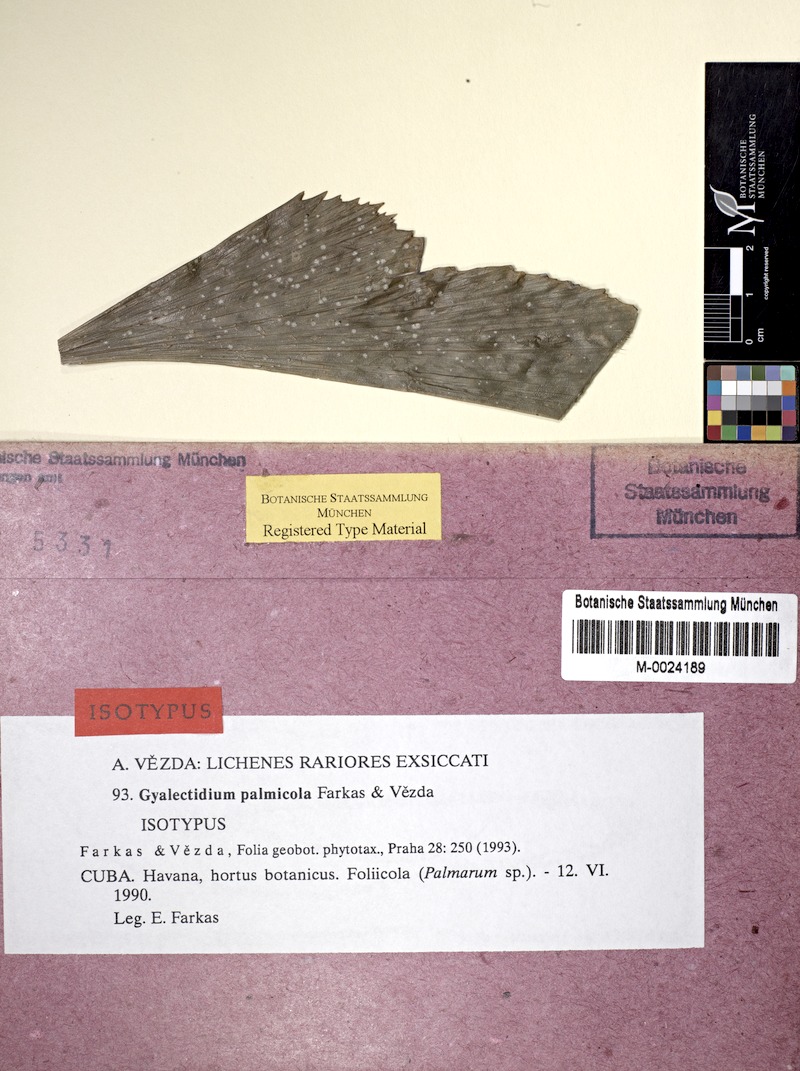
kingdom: Fungi
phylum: Ascomycota
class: Lecanoromycetes
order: Ostropales
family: Gomphillaceae
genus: Gyalectidium
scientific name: Gyalectidium
